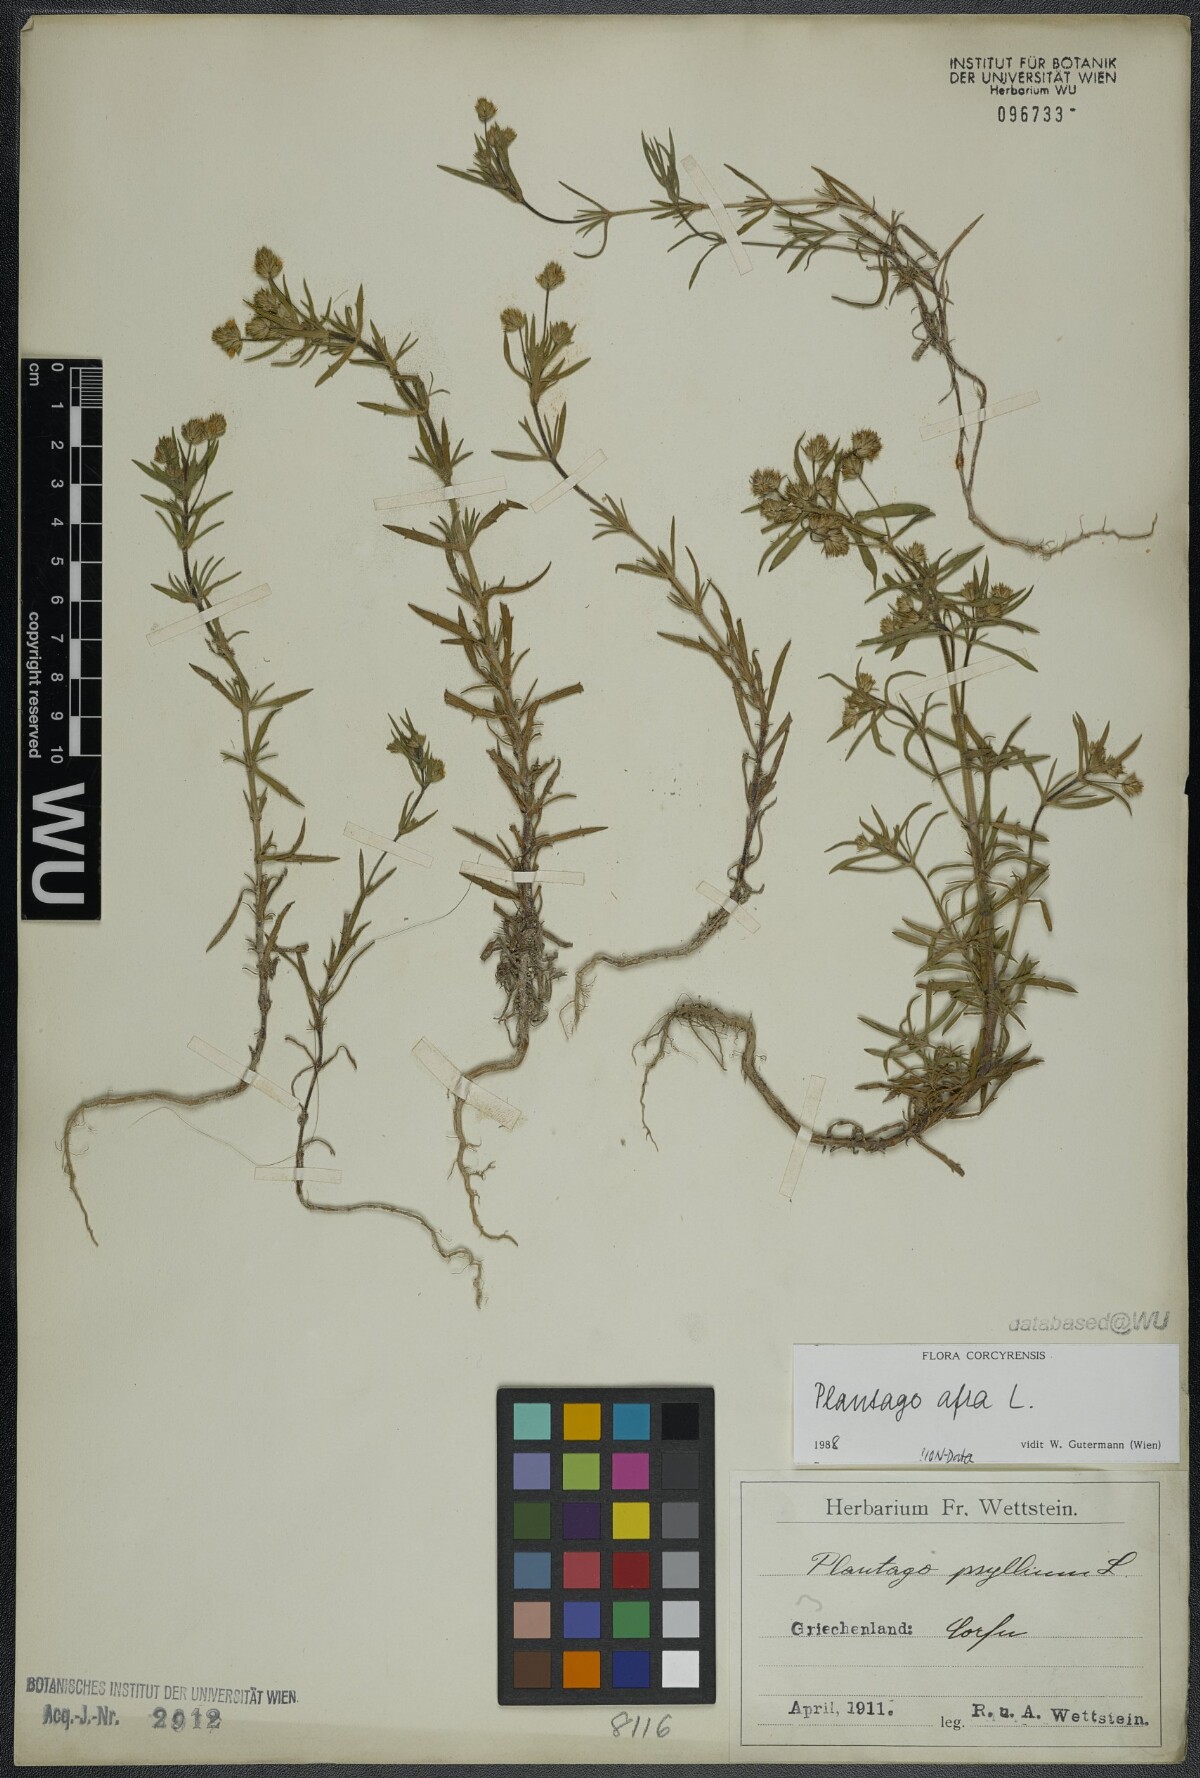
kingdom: Plantae
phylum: Tracheophyta
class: Magnoliopsida
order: Lamiales
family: Plantaginaceae
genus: Plantago
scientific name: Plantago afra
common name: Glandular plantain
